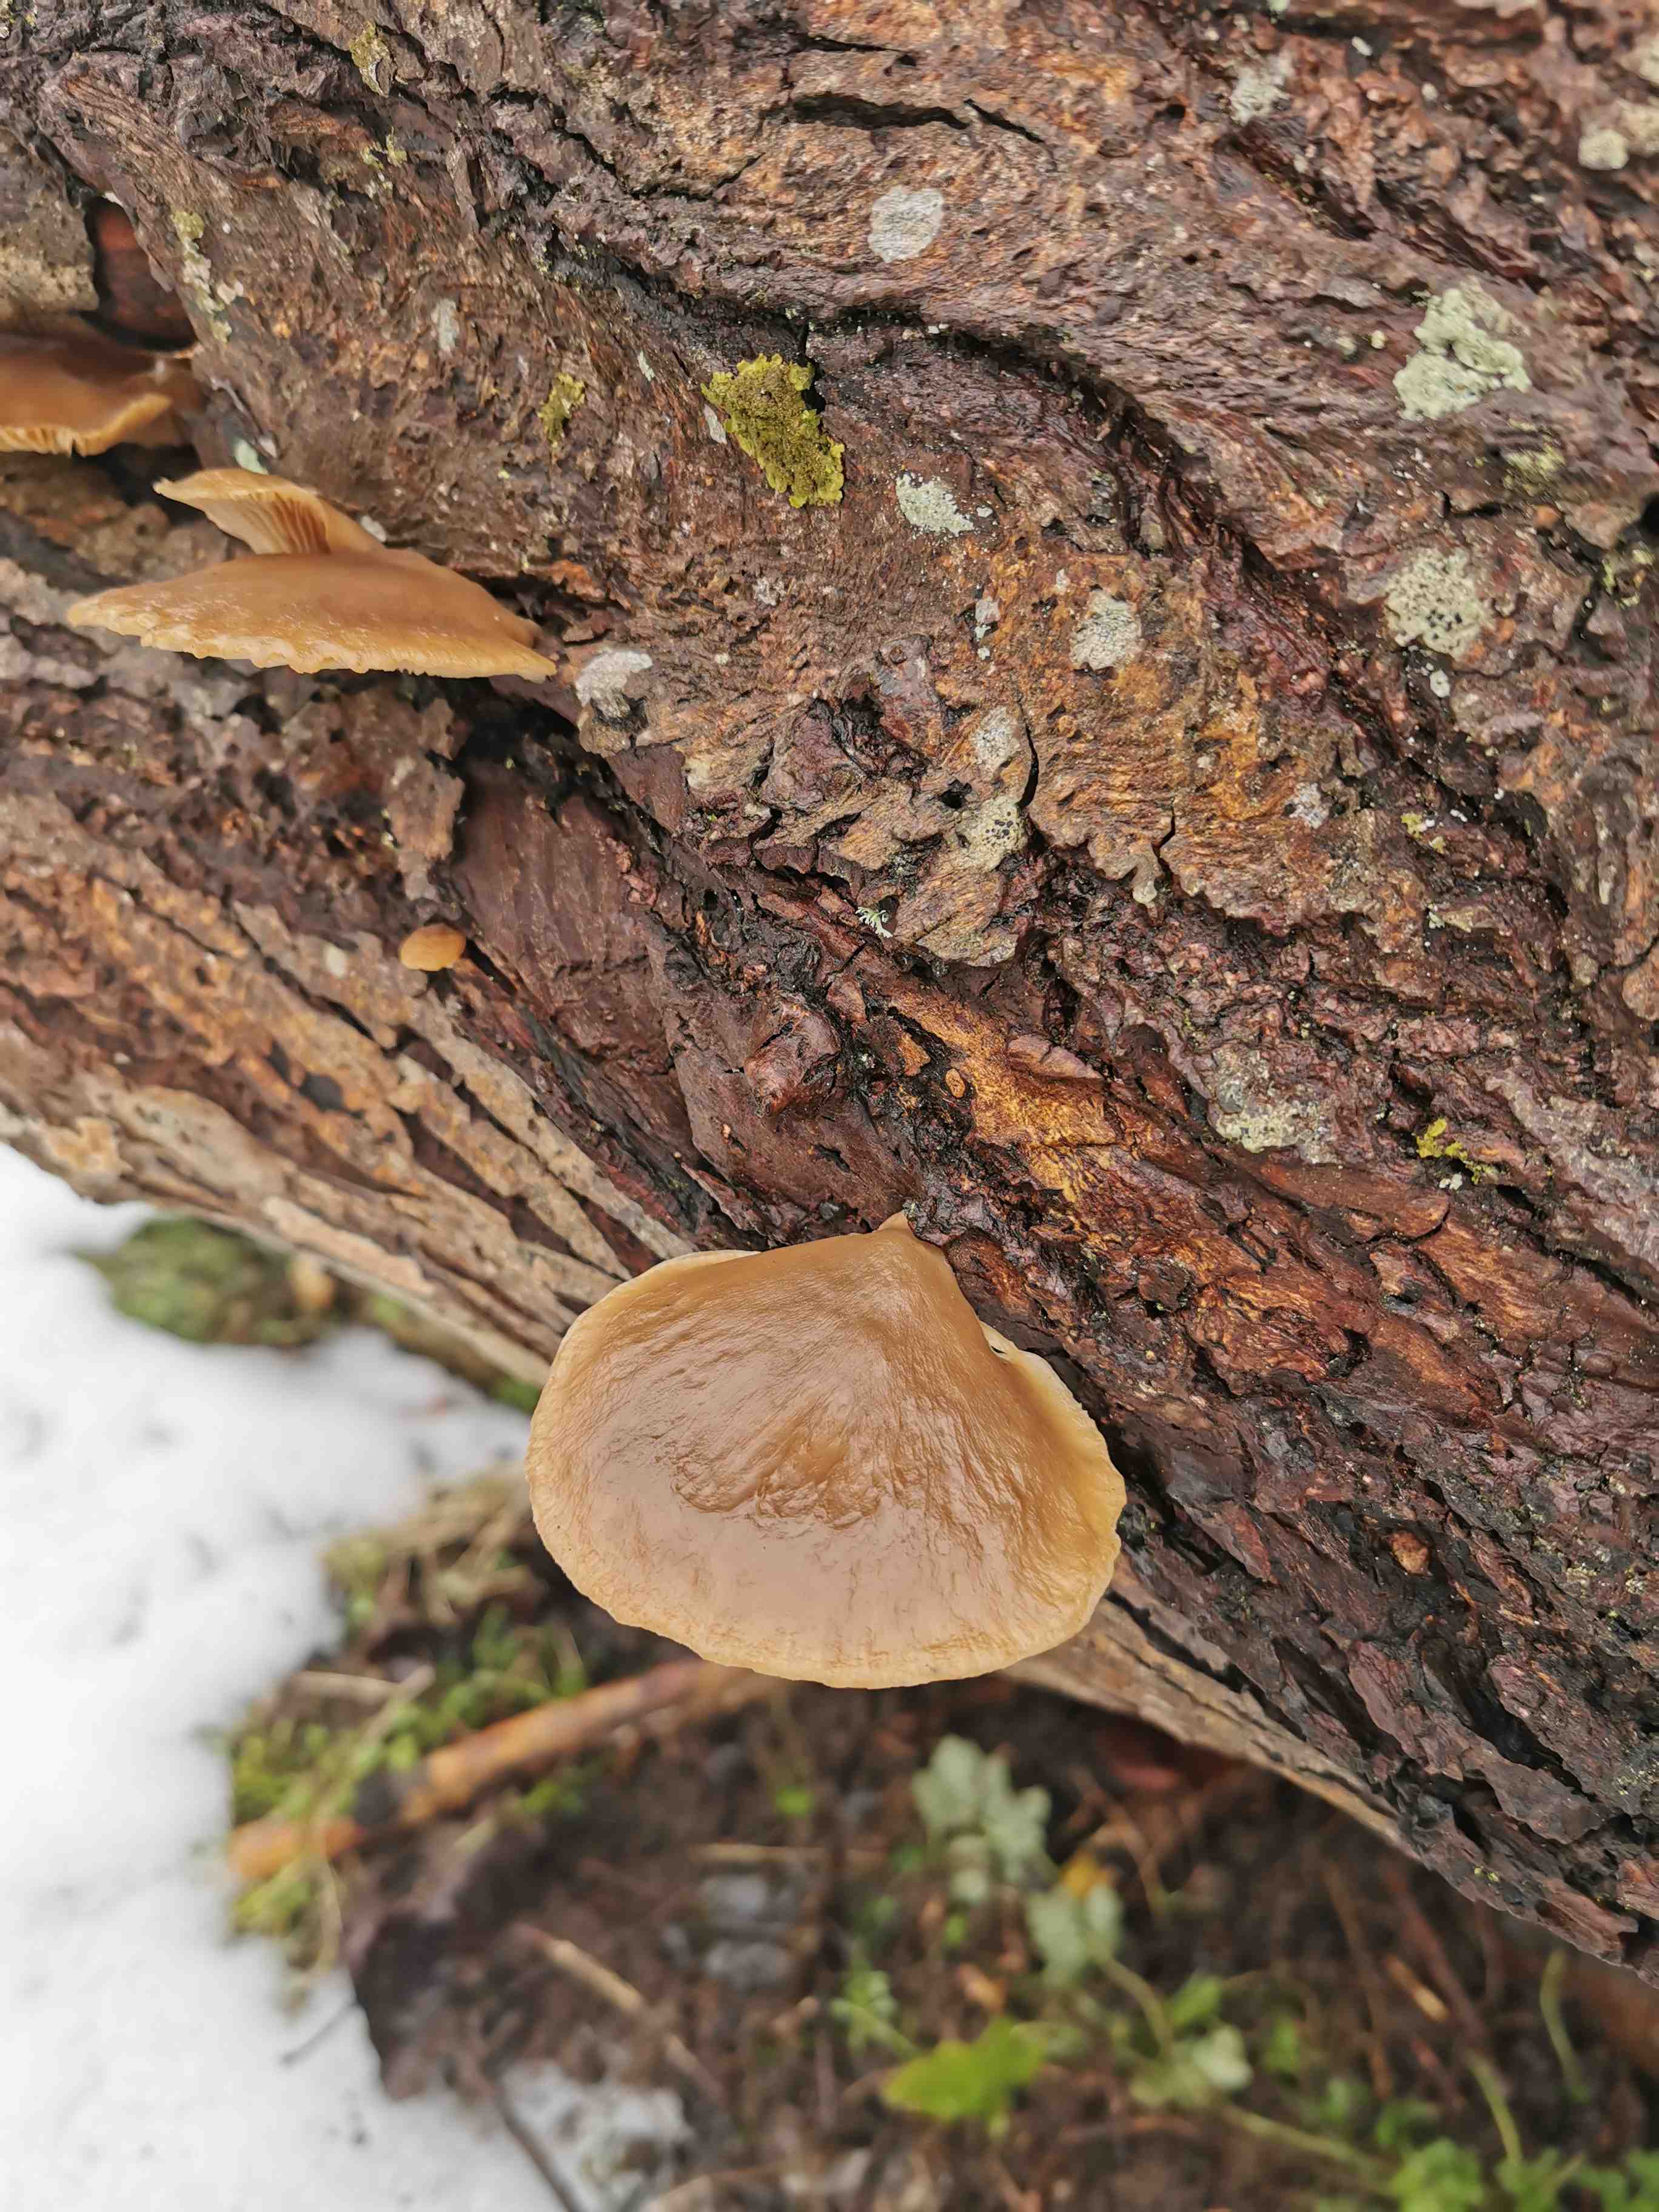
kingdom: Fungi
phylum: Basidiomycota
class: Agaricomycetes
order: Agaricales
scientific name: Agaricales
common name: champignonordenen
